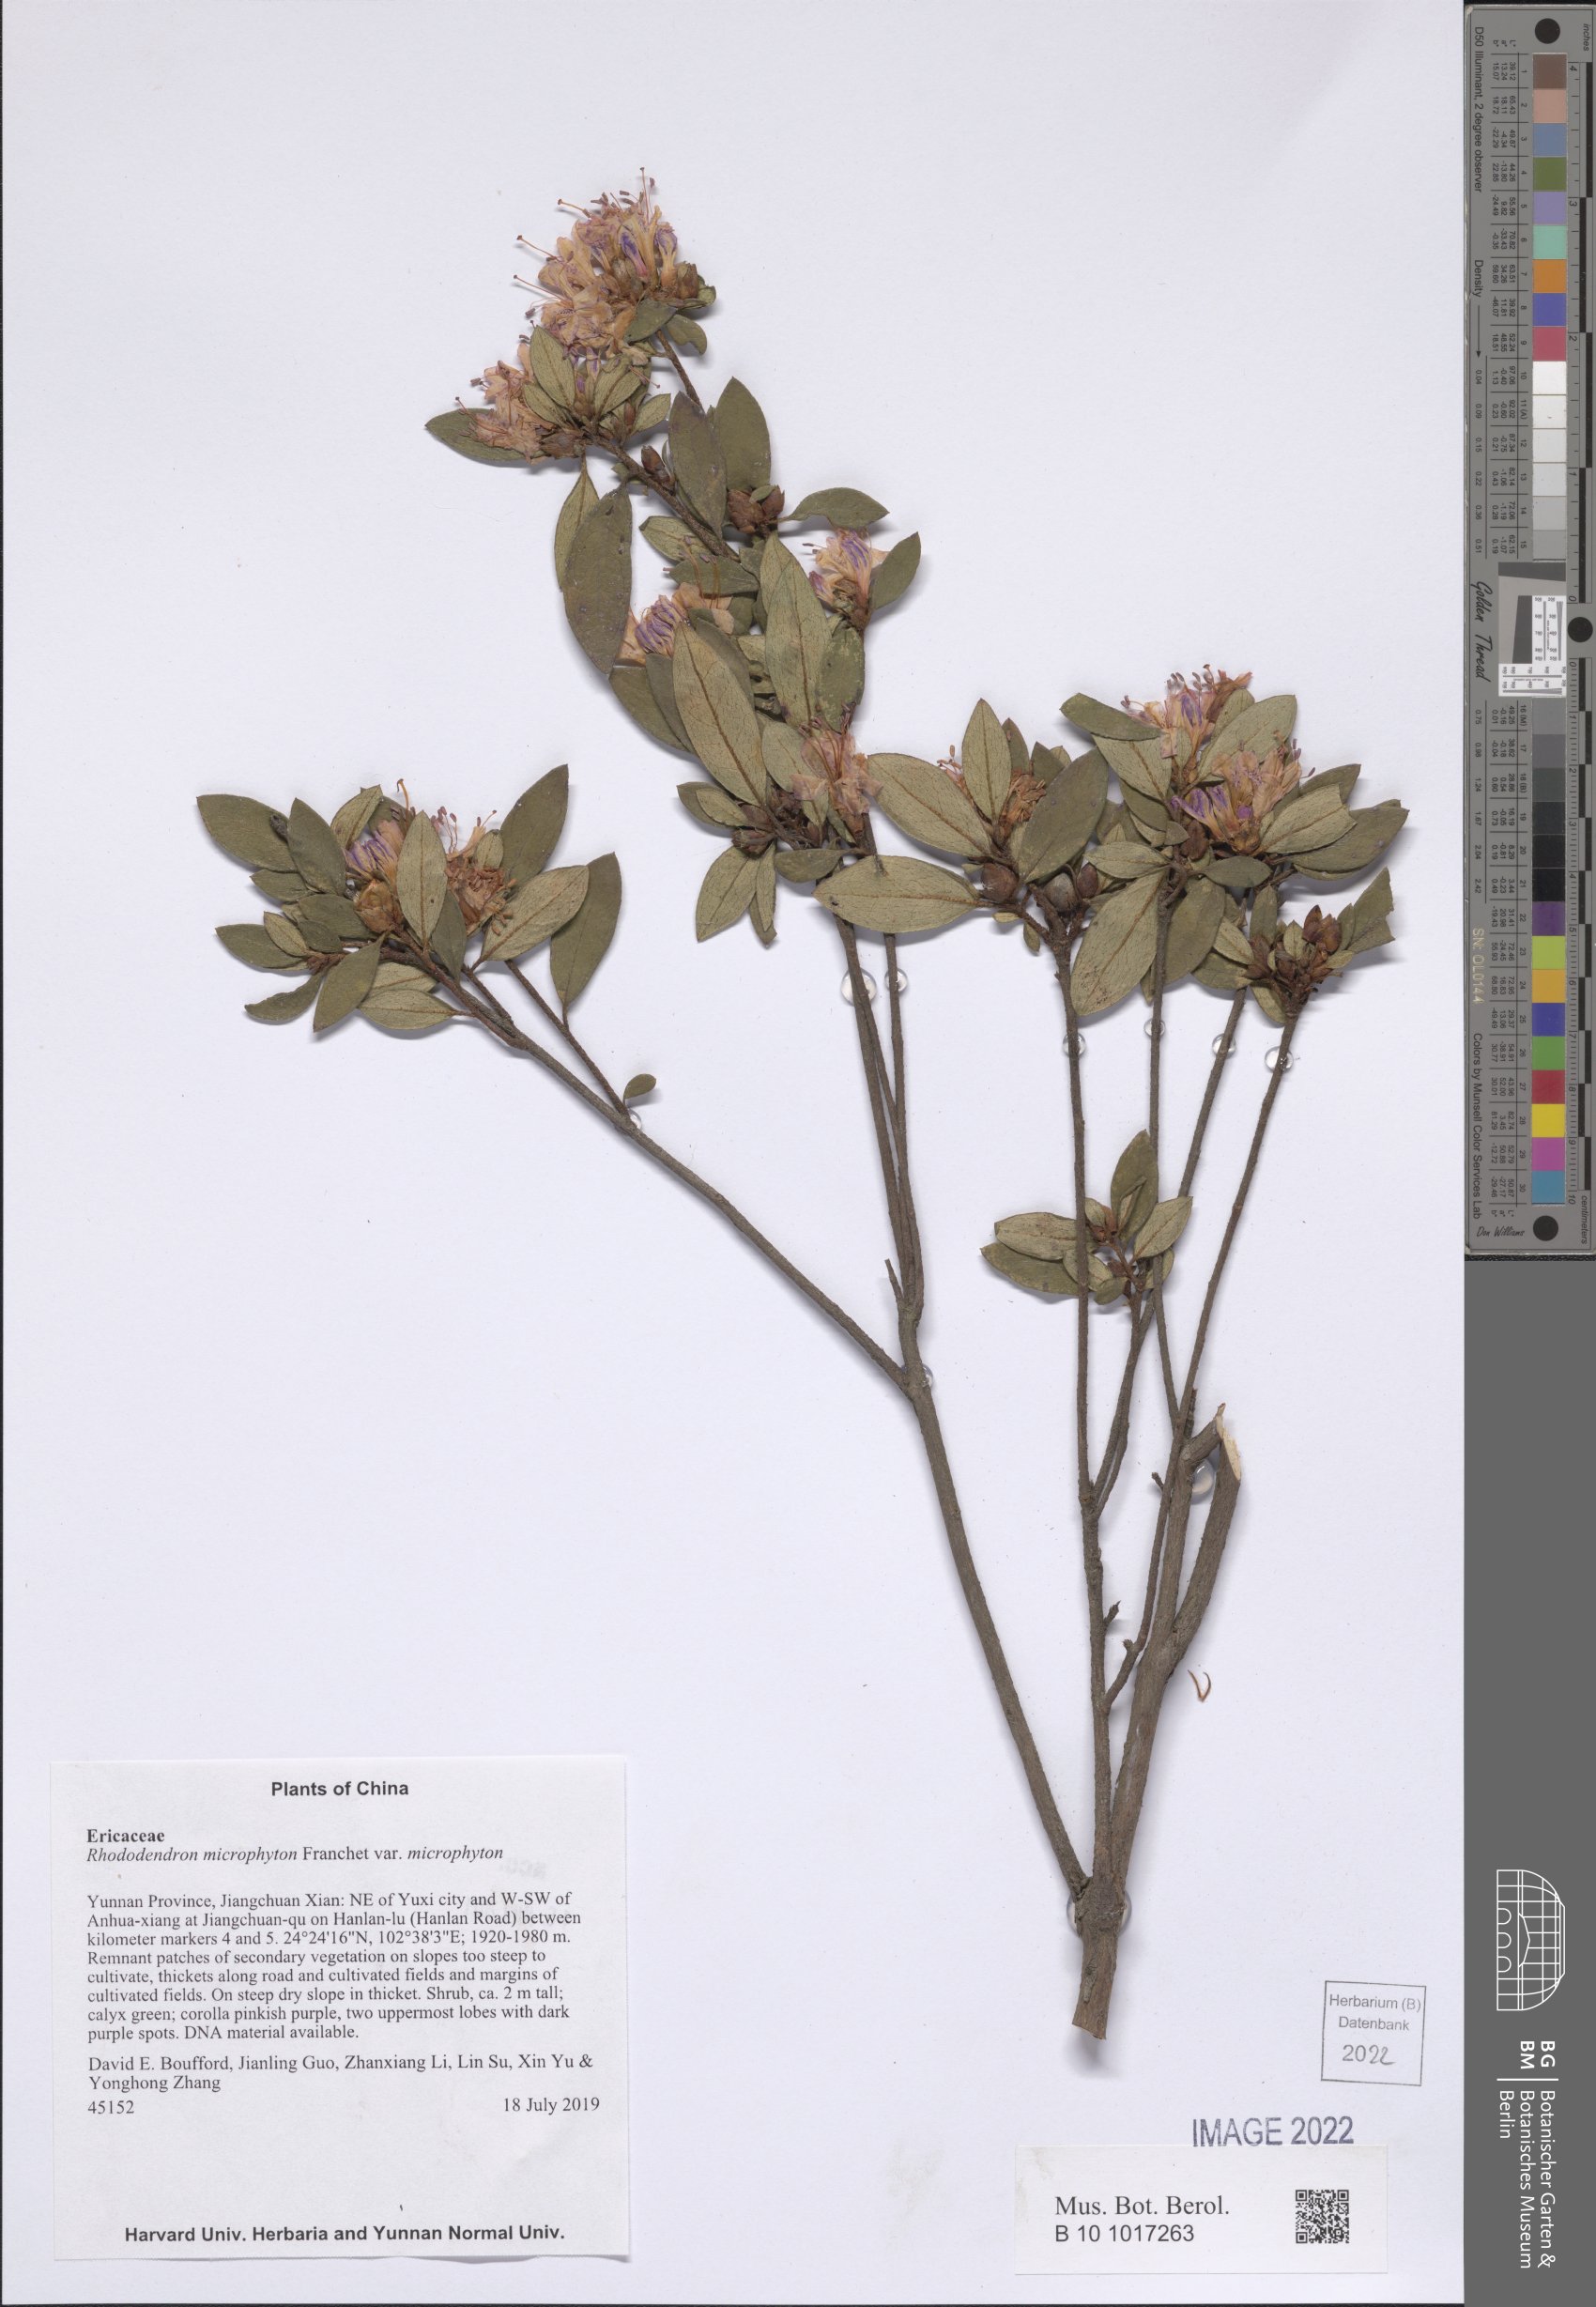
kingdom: Plantae
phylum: Tracheophyta
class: Magnoliopsida
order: Ericales
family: Ericaceae
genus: Rhododendron
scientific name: Rhododendron microphyton
